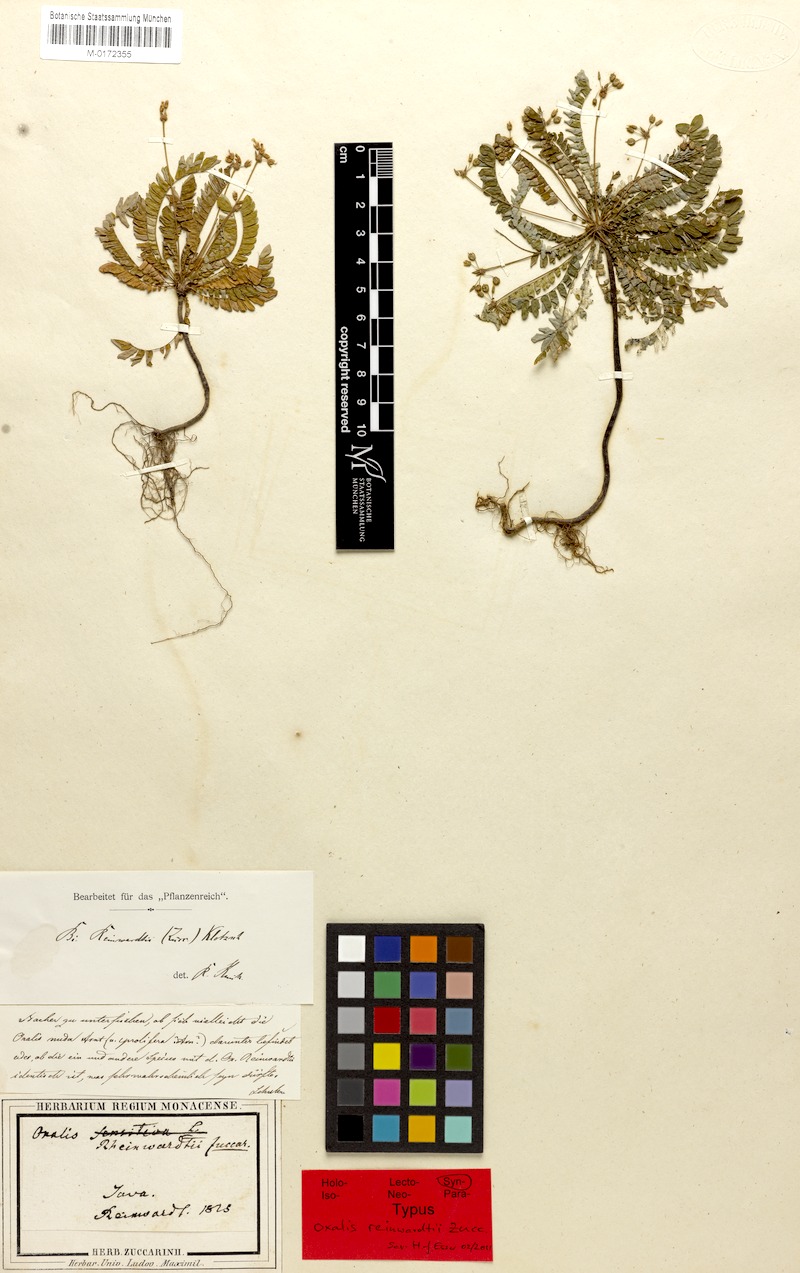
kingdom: Plantae
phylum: Tracheophyta
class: Magnoliopsida
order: Oxalidales
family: Oxalidaceae
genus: Biophytum
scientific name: Biophytum reinwardtii
